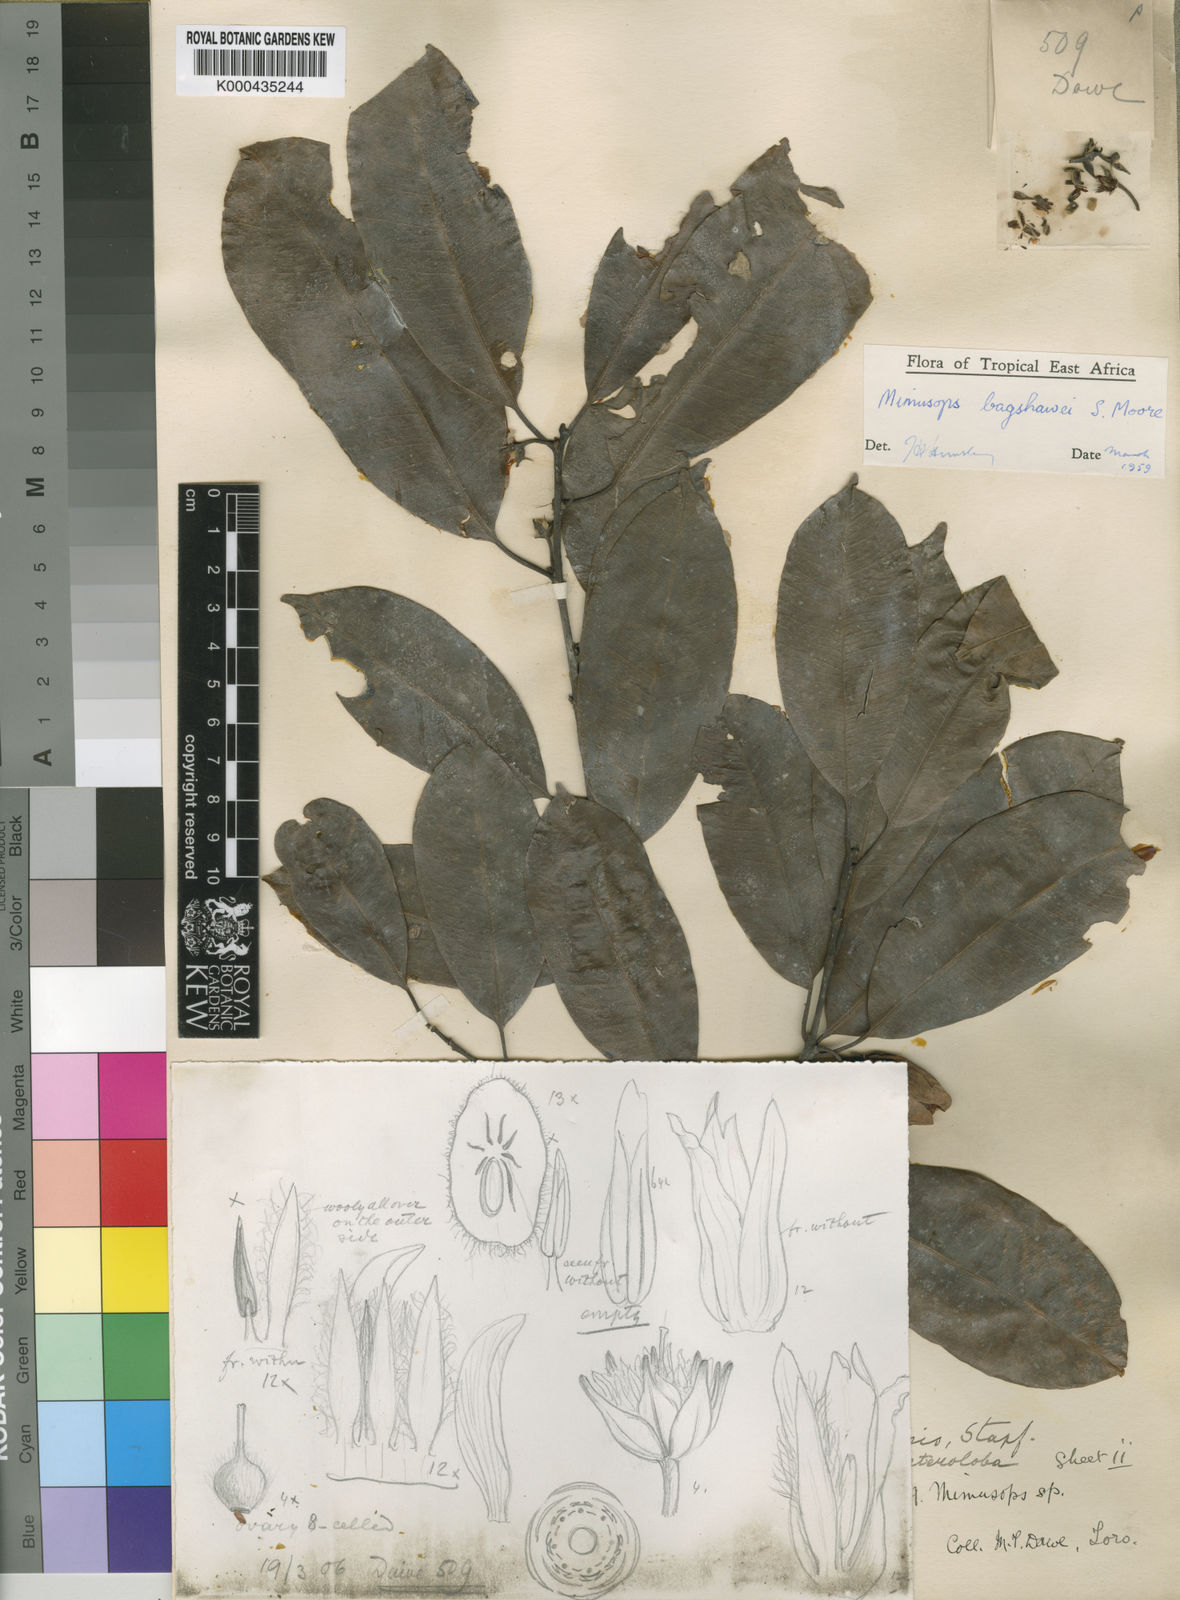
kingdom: Plantae
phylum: Tracheophyta
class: Magnoliopsida
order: Ericales
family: Sapotaceae
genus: Mimusops
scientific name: Mimusops bagshawei
